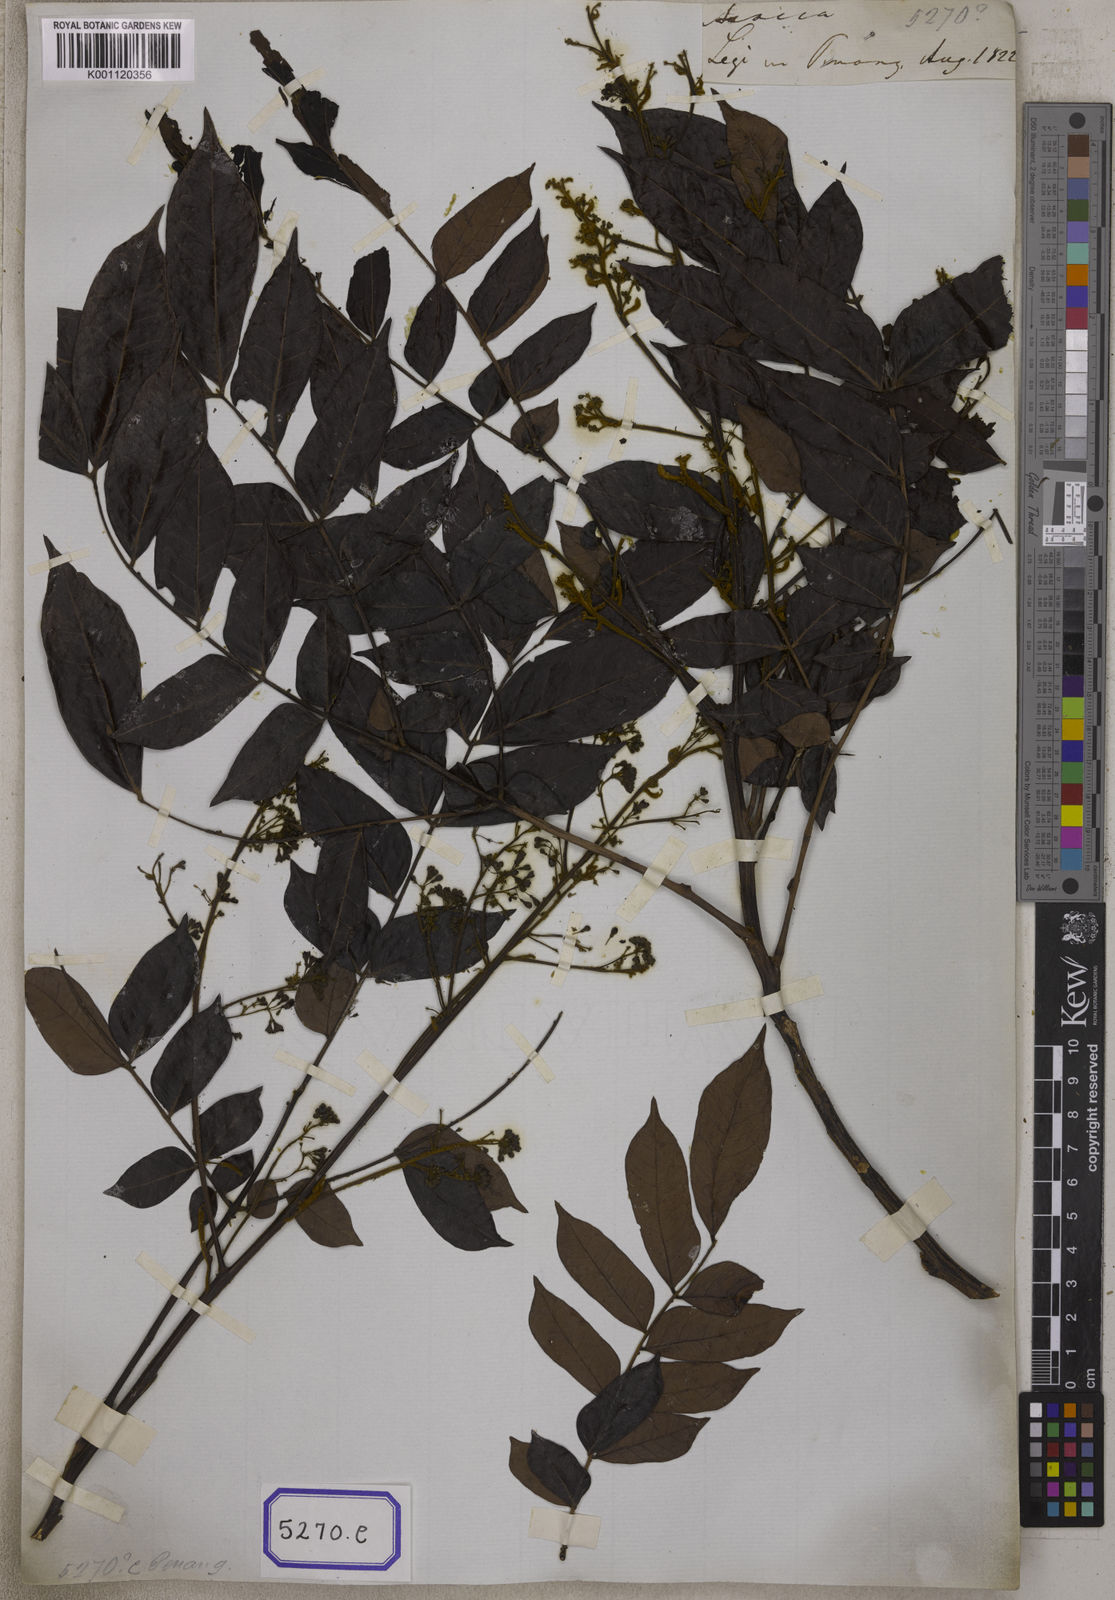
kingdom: Plantae
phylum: Tracheophyta
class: Magnoliopsida
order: Fabales
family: Fabaceae
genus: Archidendron
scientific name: Archidendron clypearia
